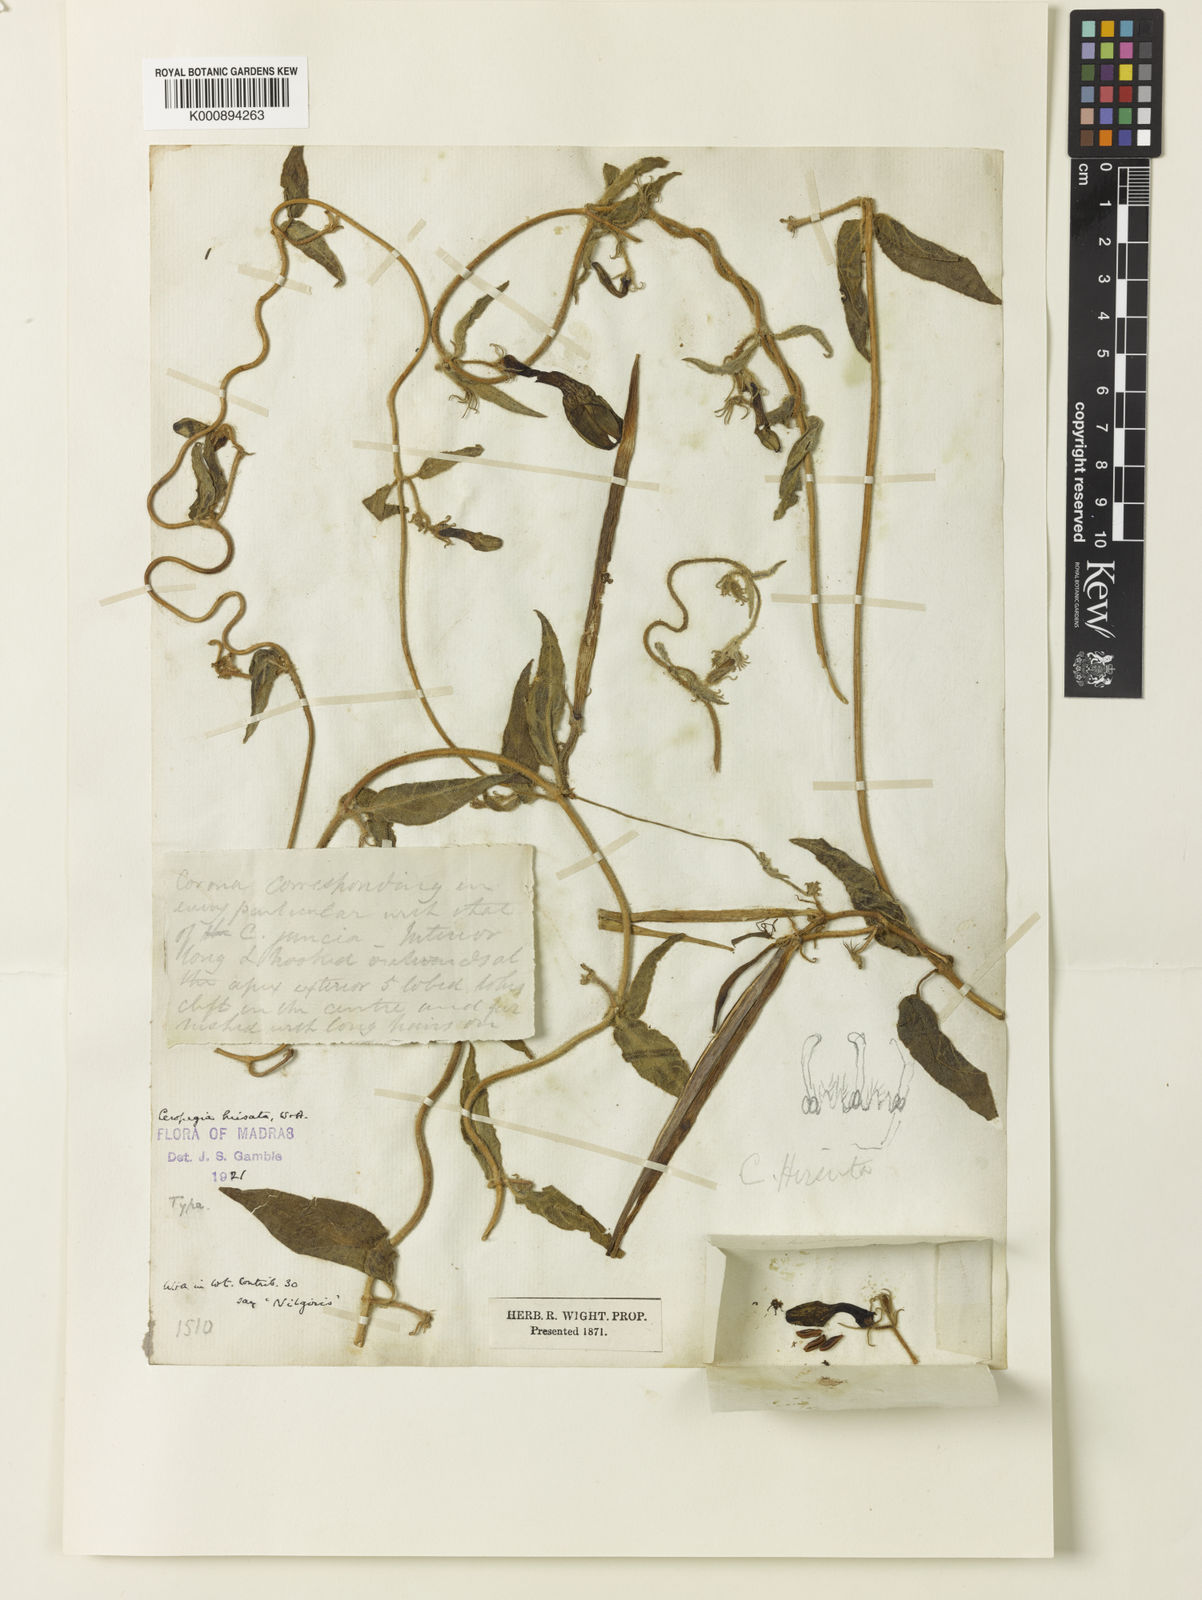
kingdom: Plantae
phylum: Tracheophyta
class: Magnoliopsida
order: Gentianales
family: Apocynaceae
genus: Ceropegia
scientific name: Ceropegia hirsuta
